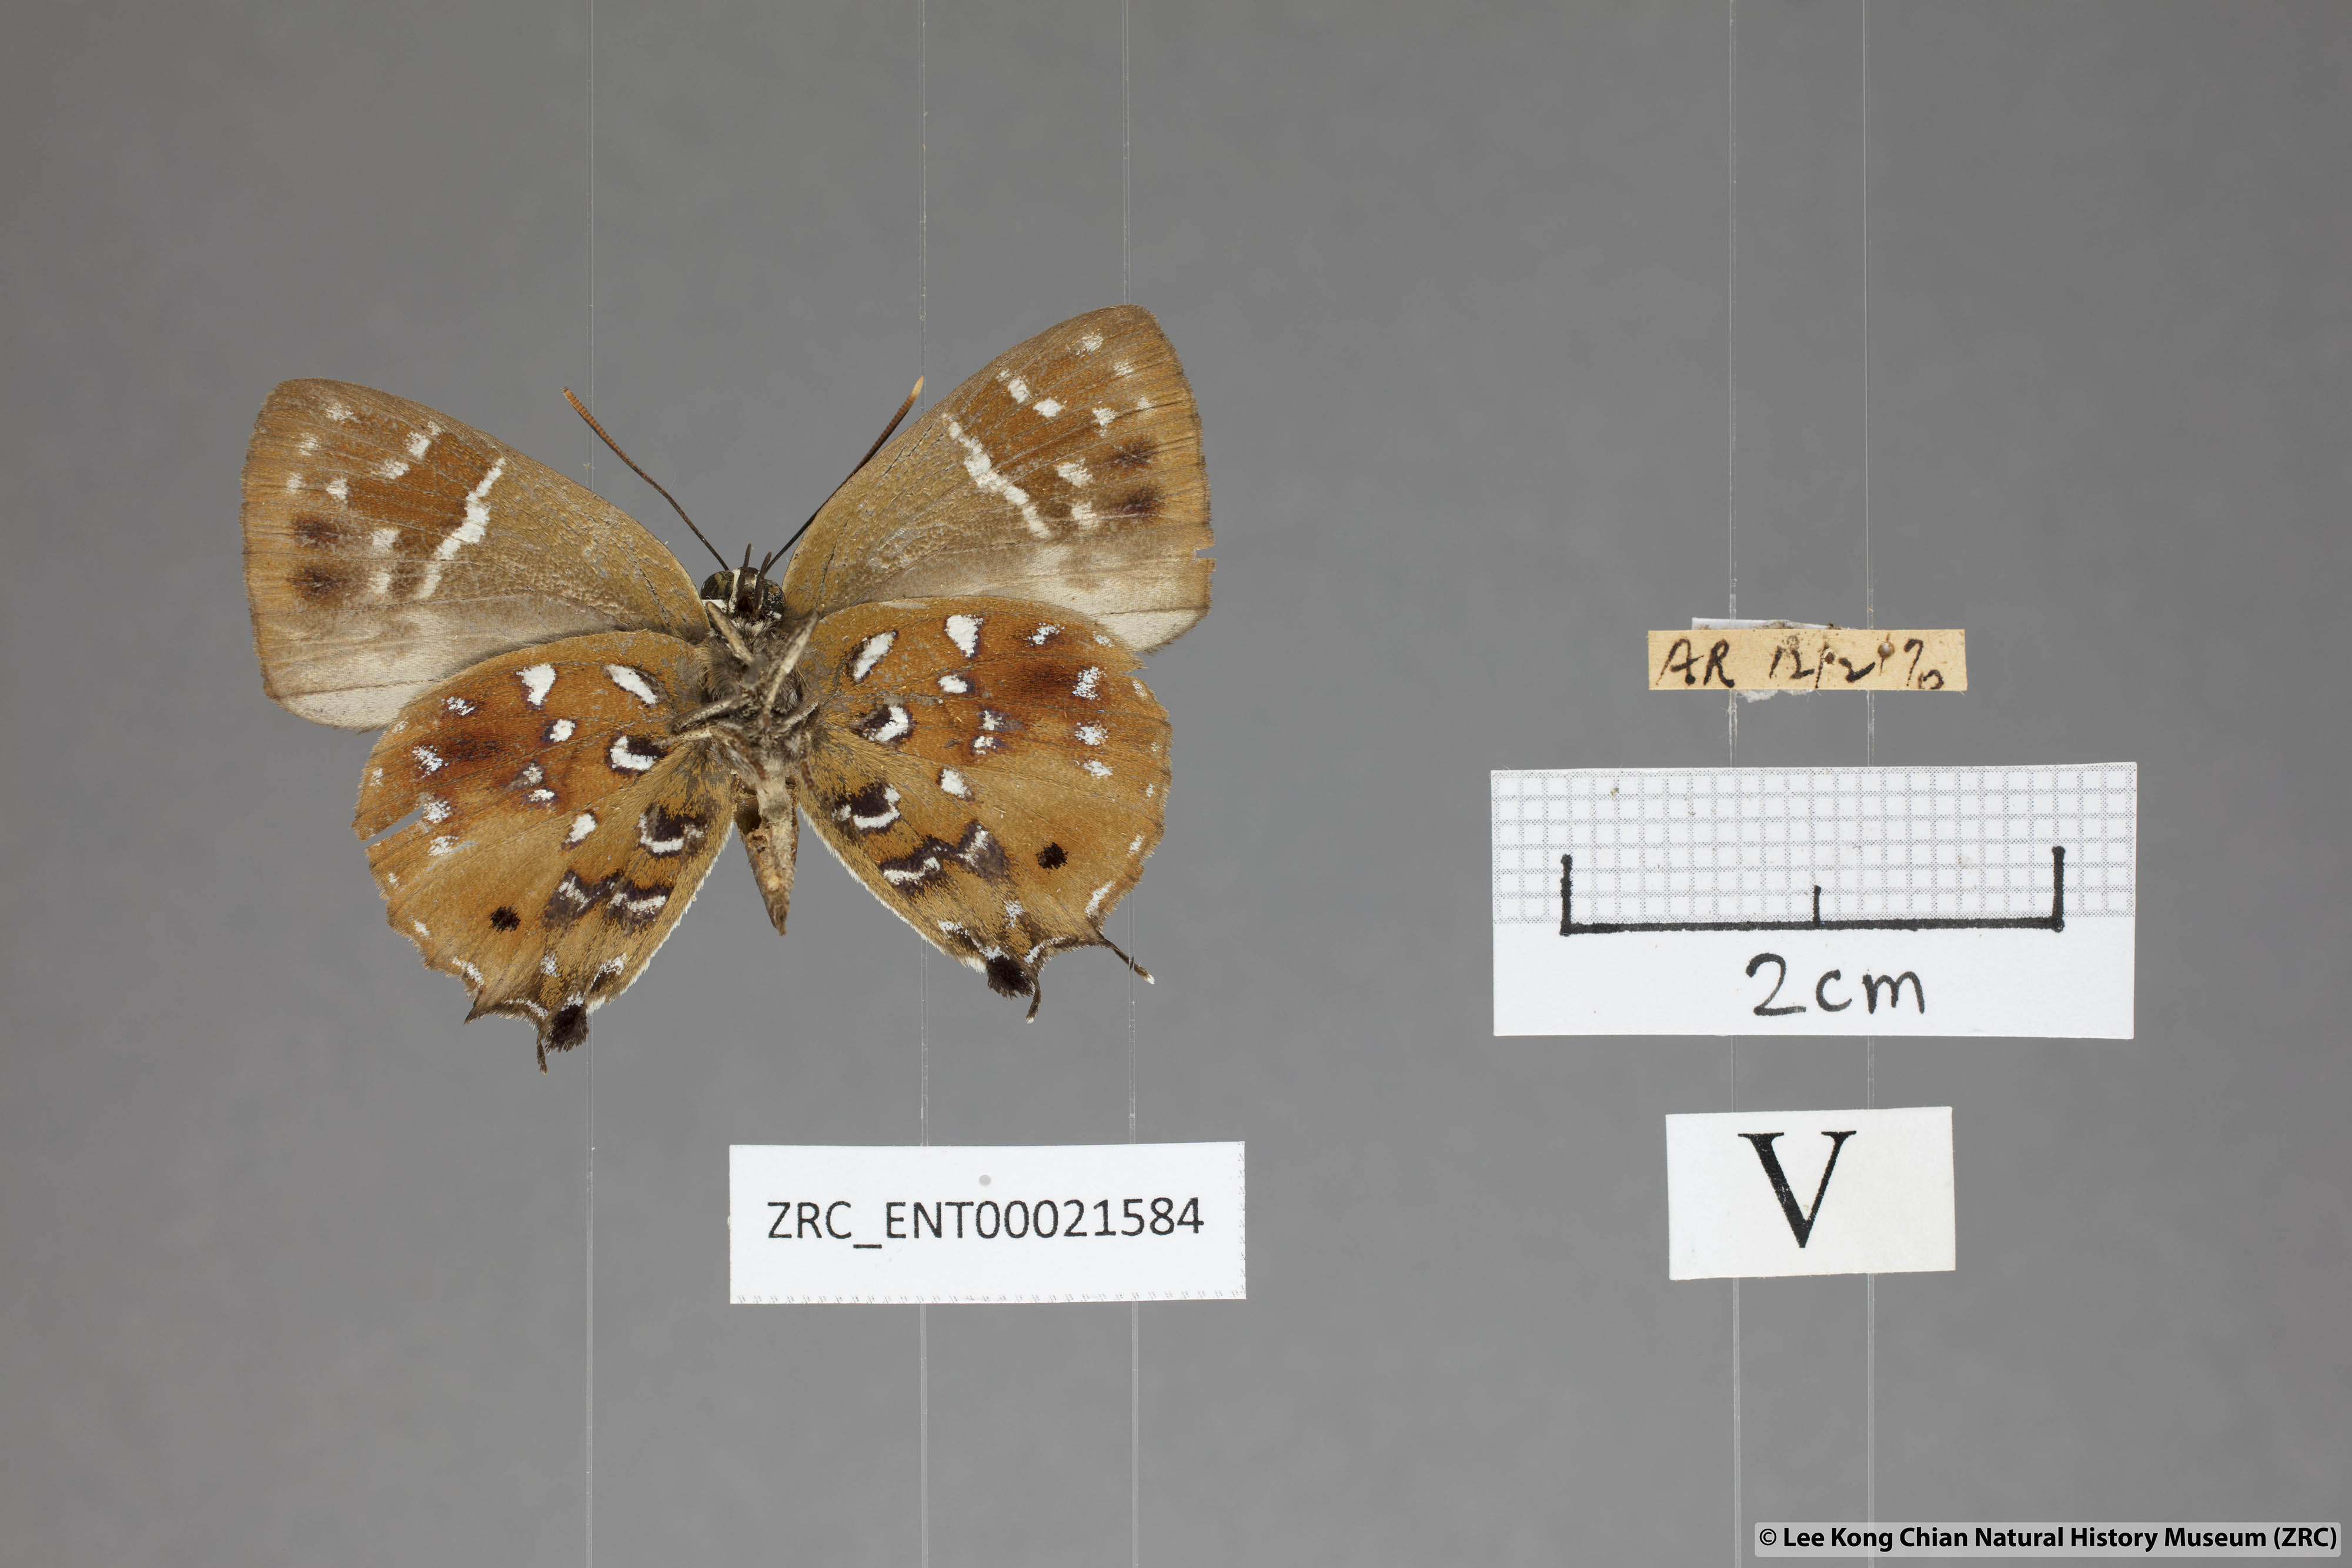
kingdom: Animalia
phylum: Arthropoda
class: Insecta
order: Lepidoptera
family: Lycaenidae
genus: Iraota
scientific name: Iraota
